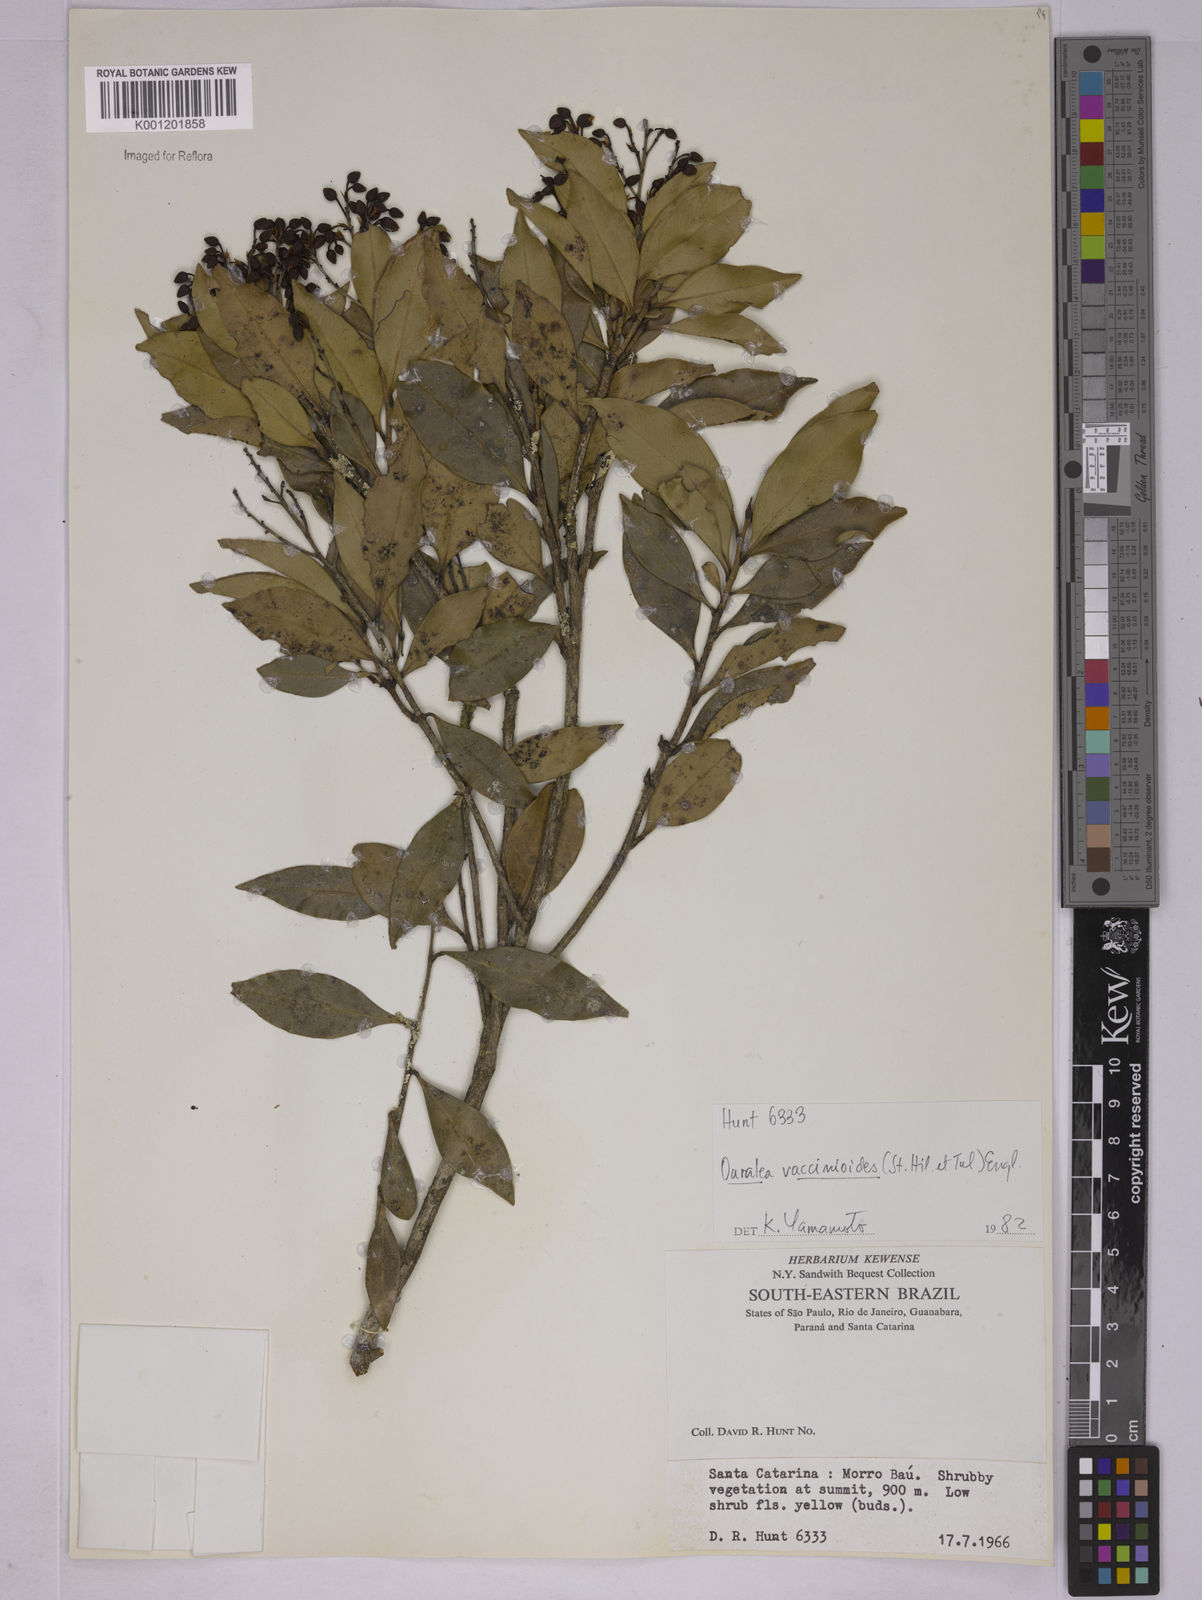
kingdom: Plantae
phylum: Tracheophyta
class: Magnoliopsida
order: Malpighiales
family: Ochnaceae
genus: Ouratea
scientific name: Ouratea vaccinioides
